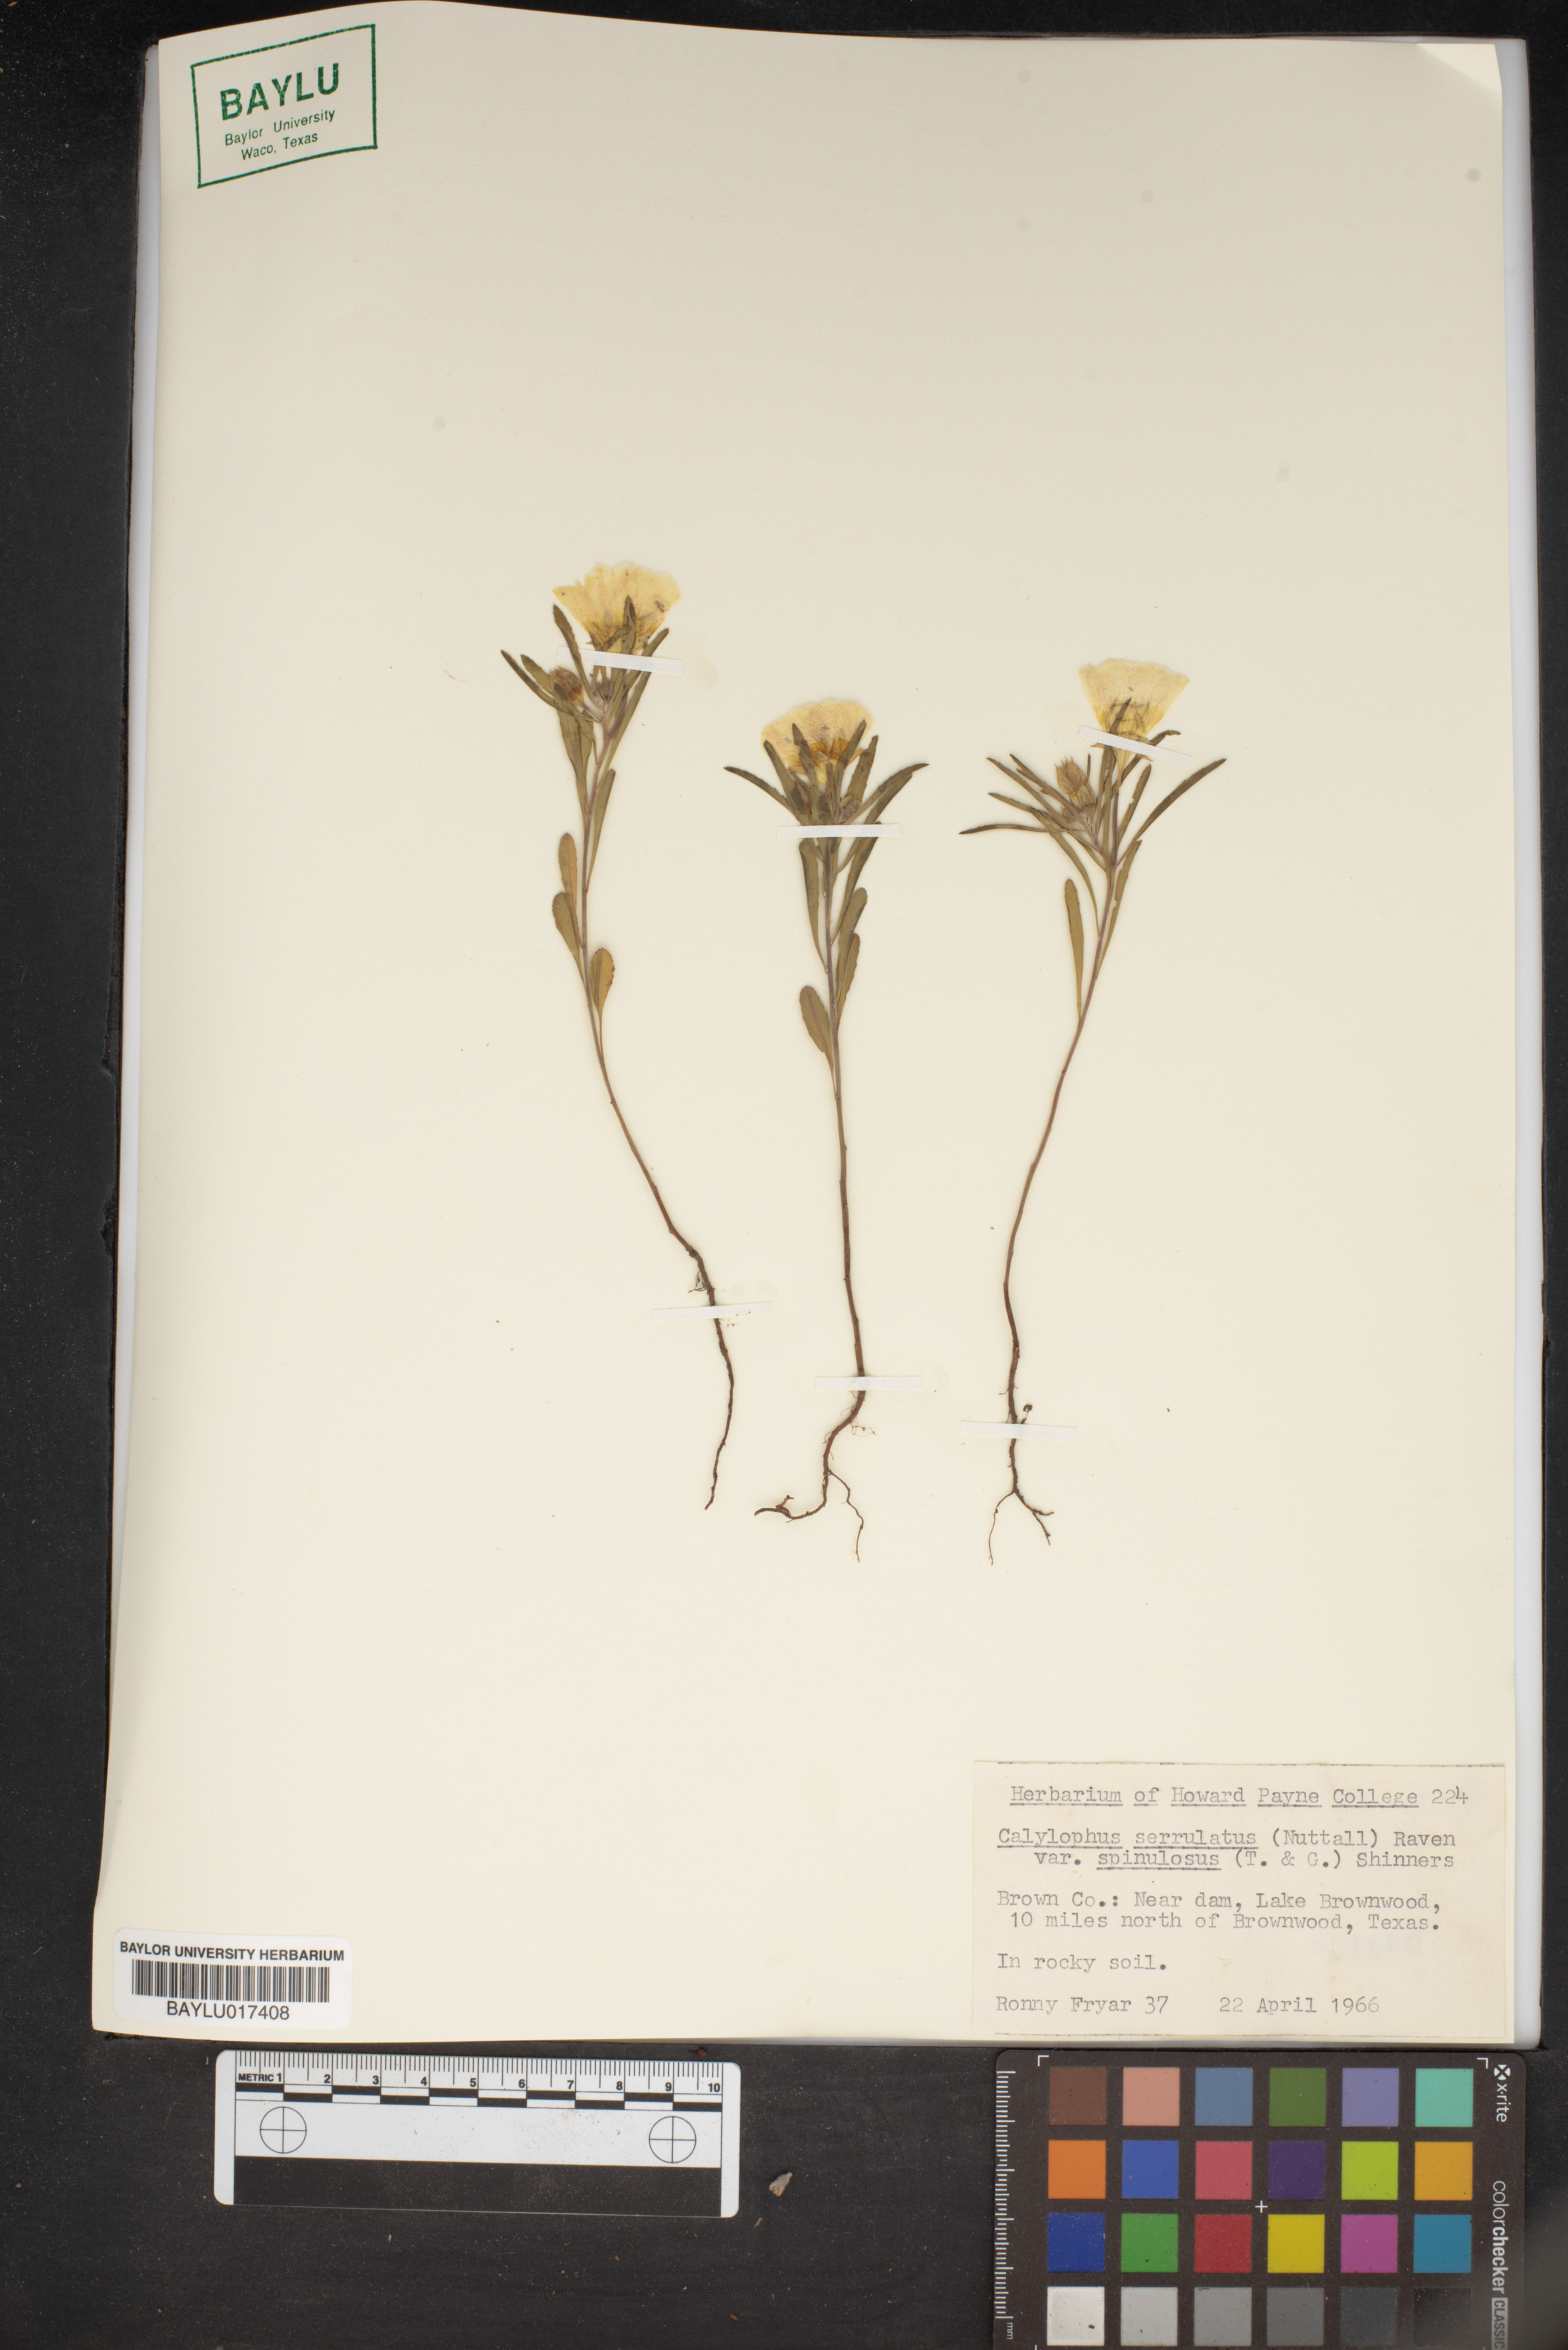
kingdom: Plantae
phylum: Tracheophyta
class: Magnoliopsida
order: Myrtales
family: Onagraceae
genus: Oenothera
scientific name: Oenothera serrulata
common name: Half-shrub calylophus
